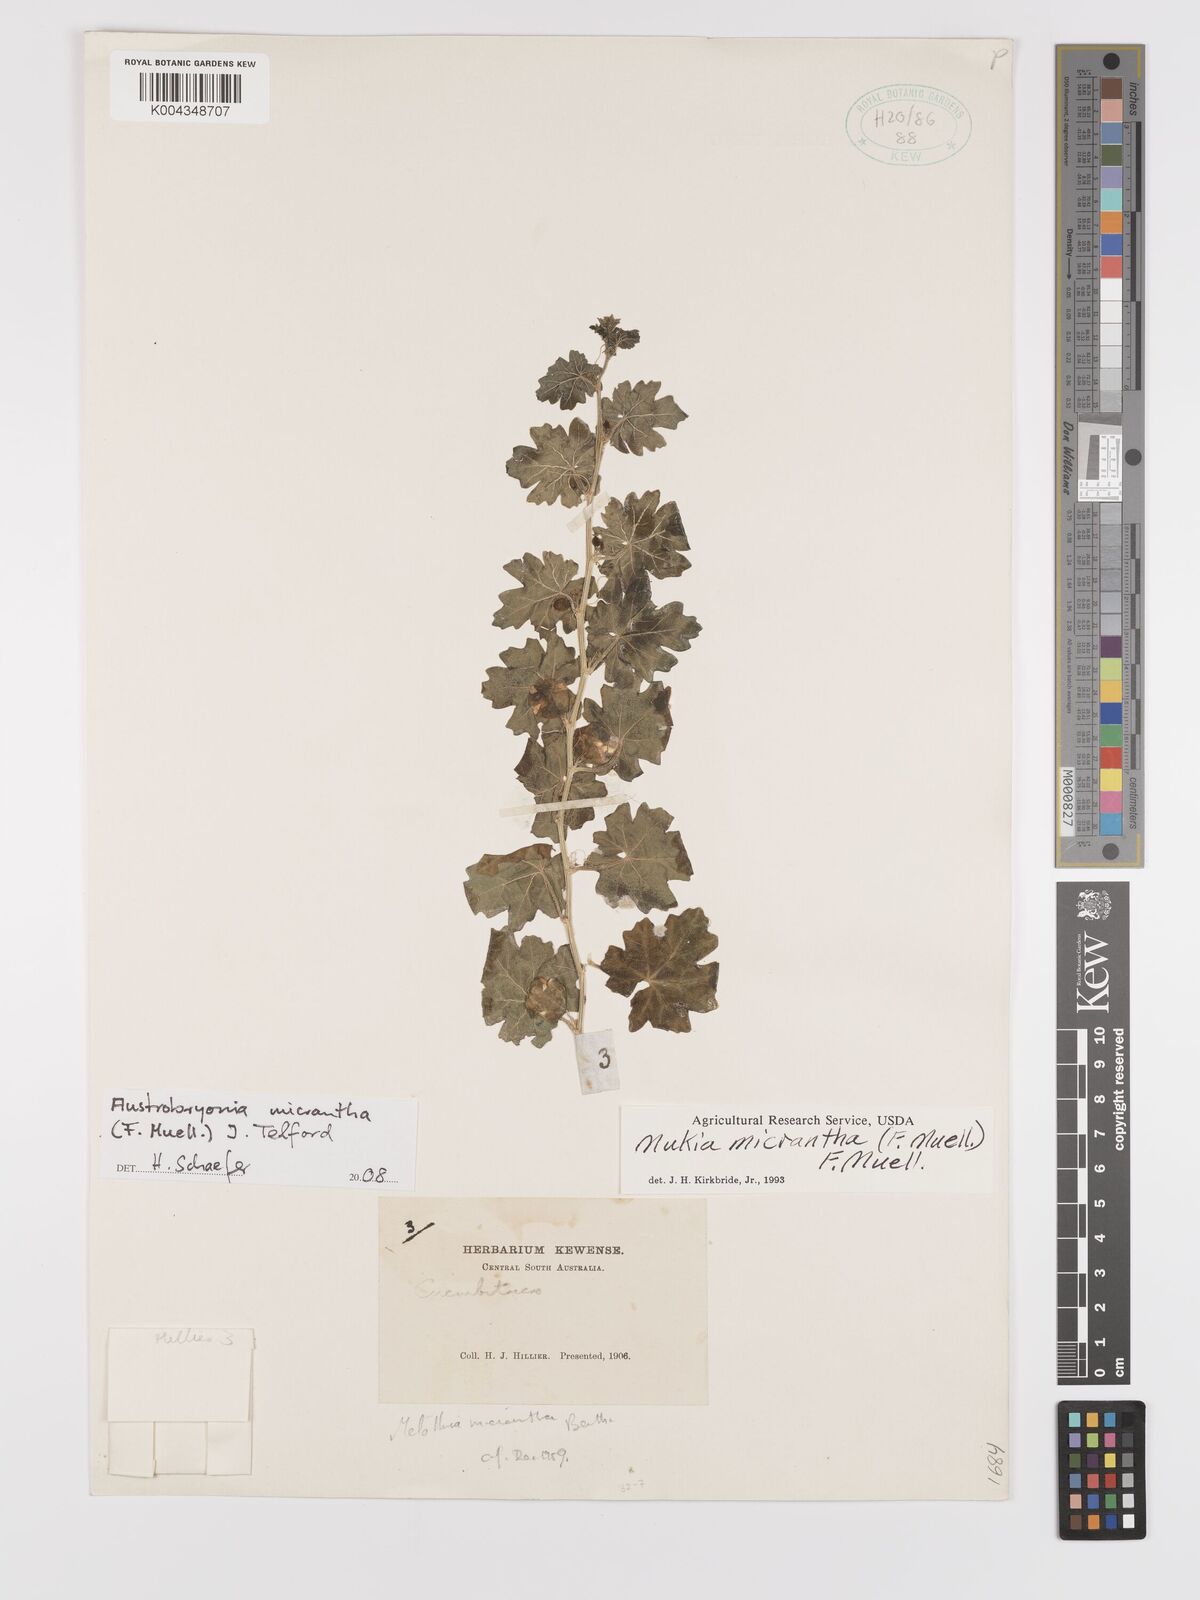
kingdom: Plantae
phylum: Tracheophyta
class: Magnoliopsida
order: Cucurbitales
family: Cucurbitaceae
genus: Austrobryonia
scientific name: Austrobryonia micrantha
